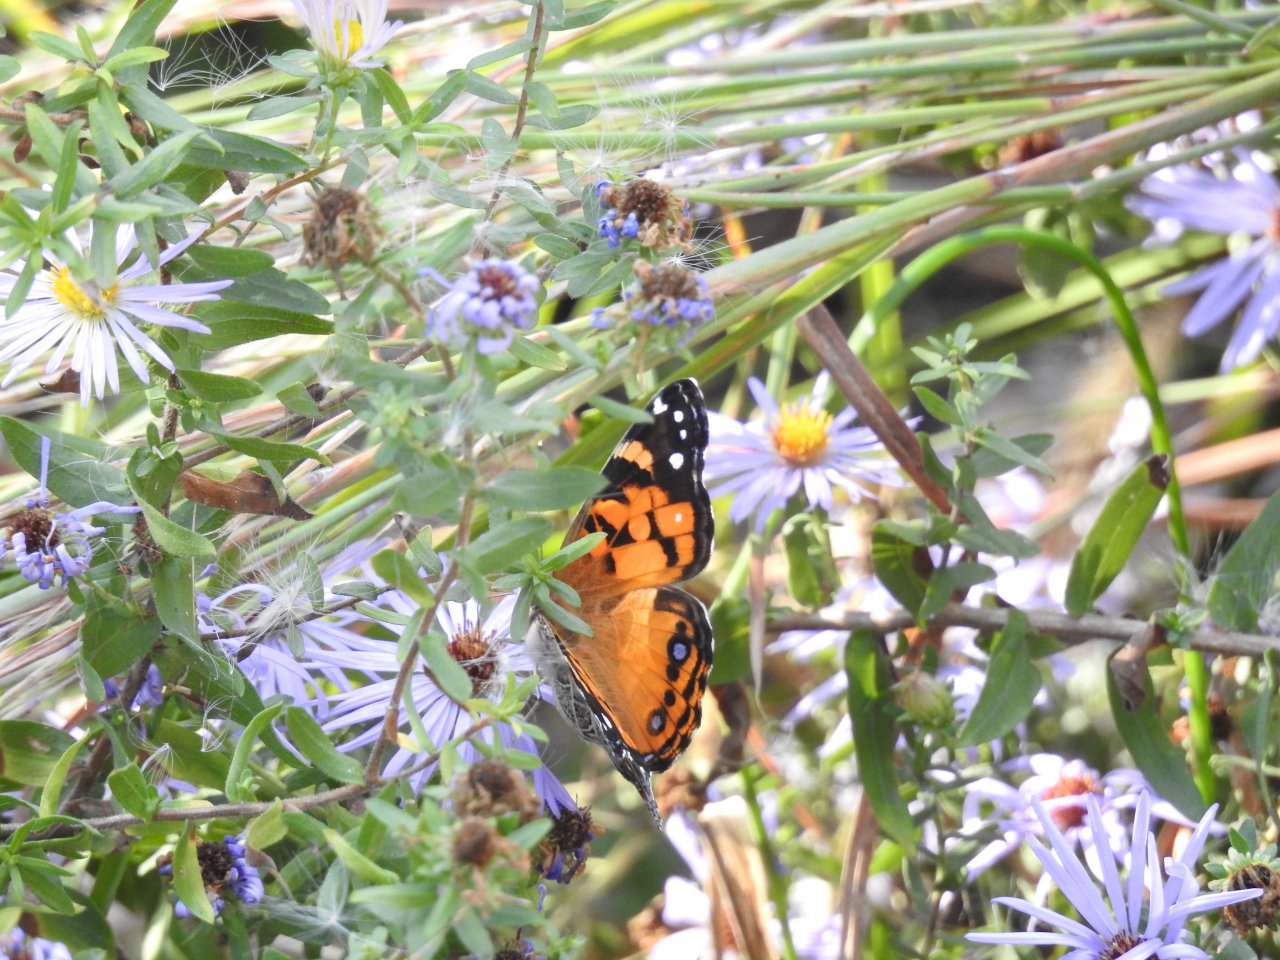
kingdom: Animalia
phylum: Arthropoda
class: Insecta
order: Lepidoptera
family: Nymphalidae
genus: Vanessa
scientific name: Vanessa cardui
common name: Painted Lady
